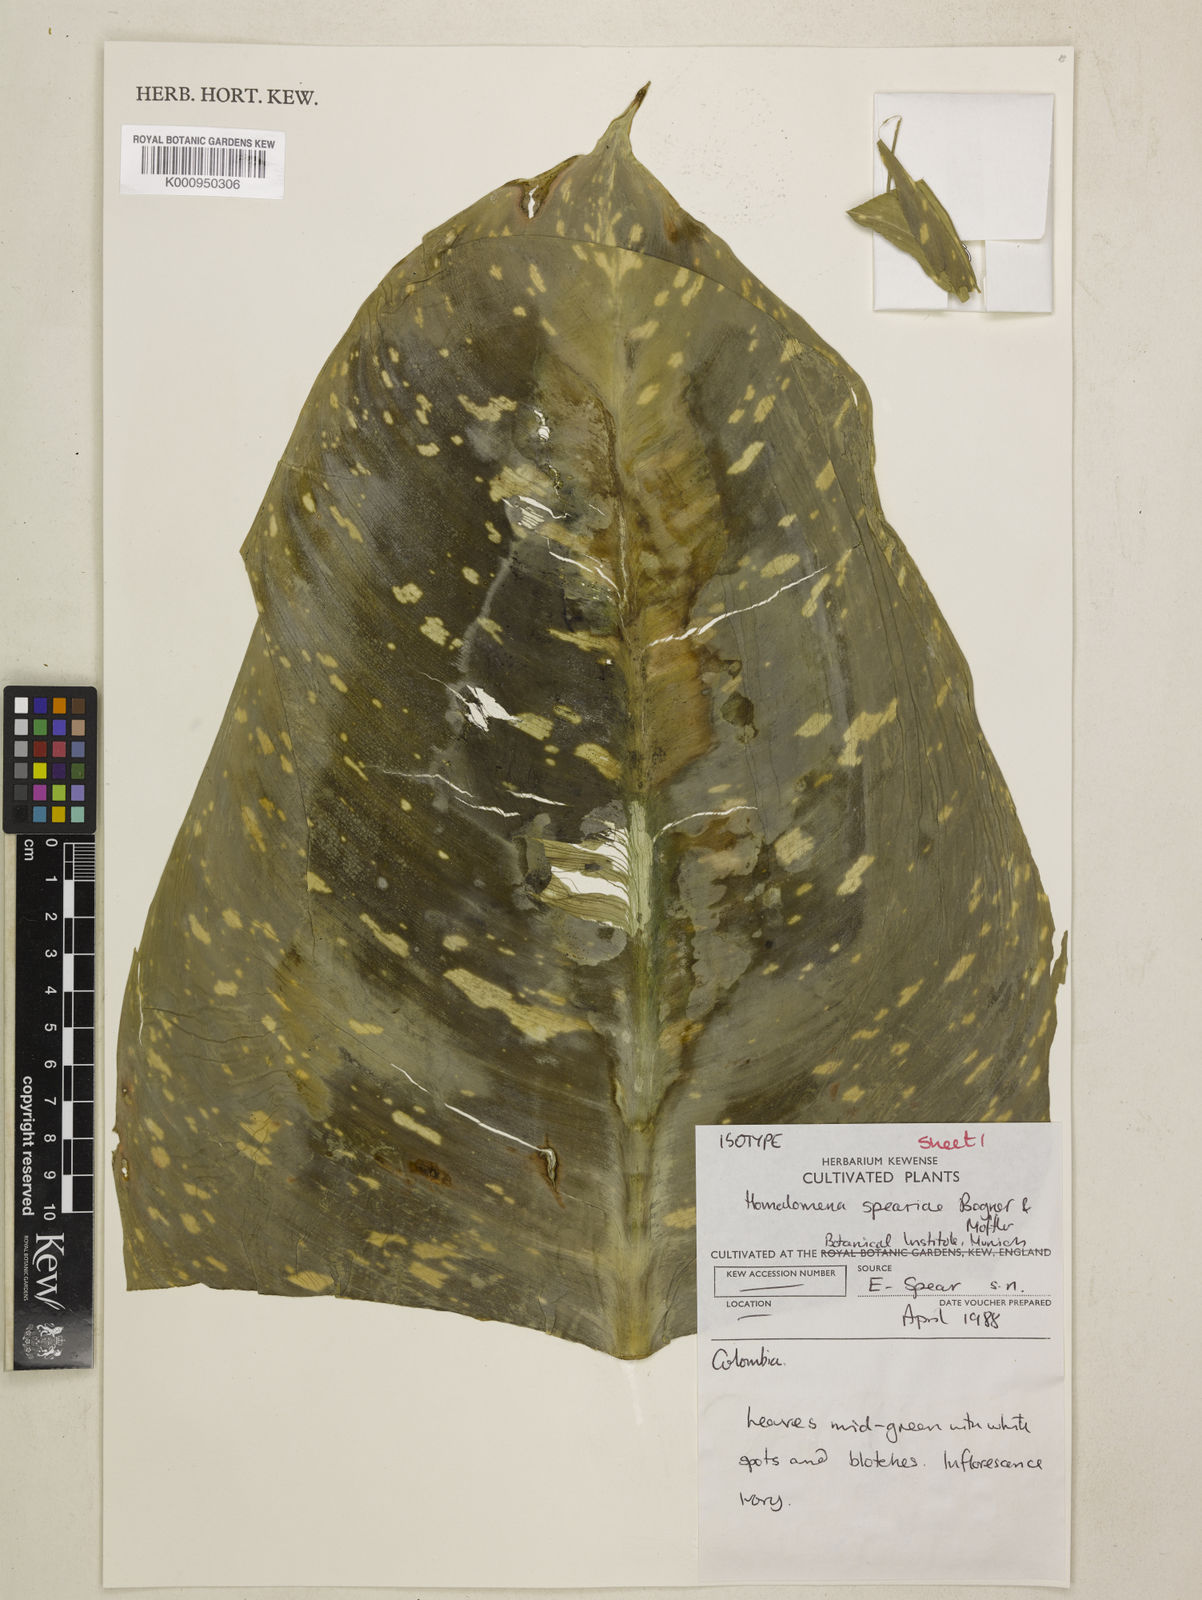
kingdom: Plantae
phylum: Tracheophyta
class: Liliopsida
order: Alismatales
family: Araceae
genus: Adelonema
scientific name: Adelonema speariae
